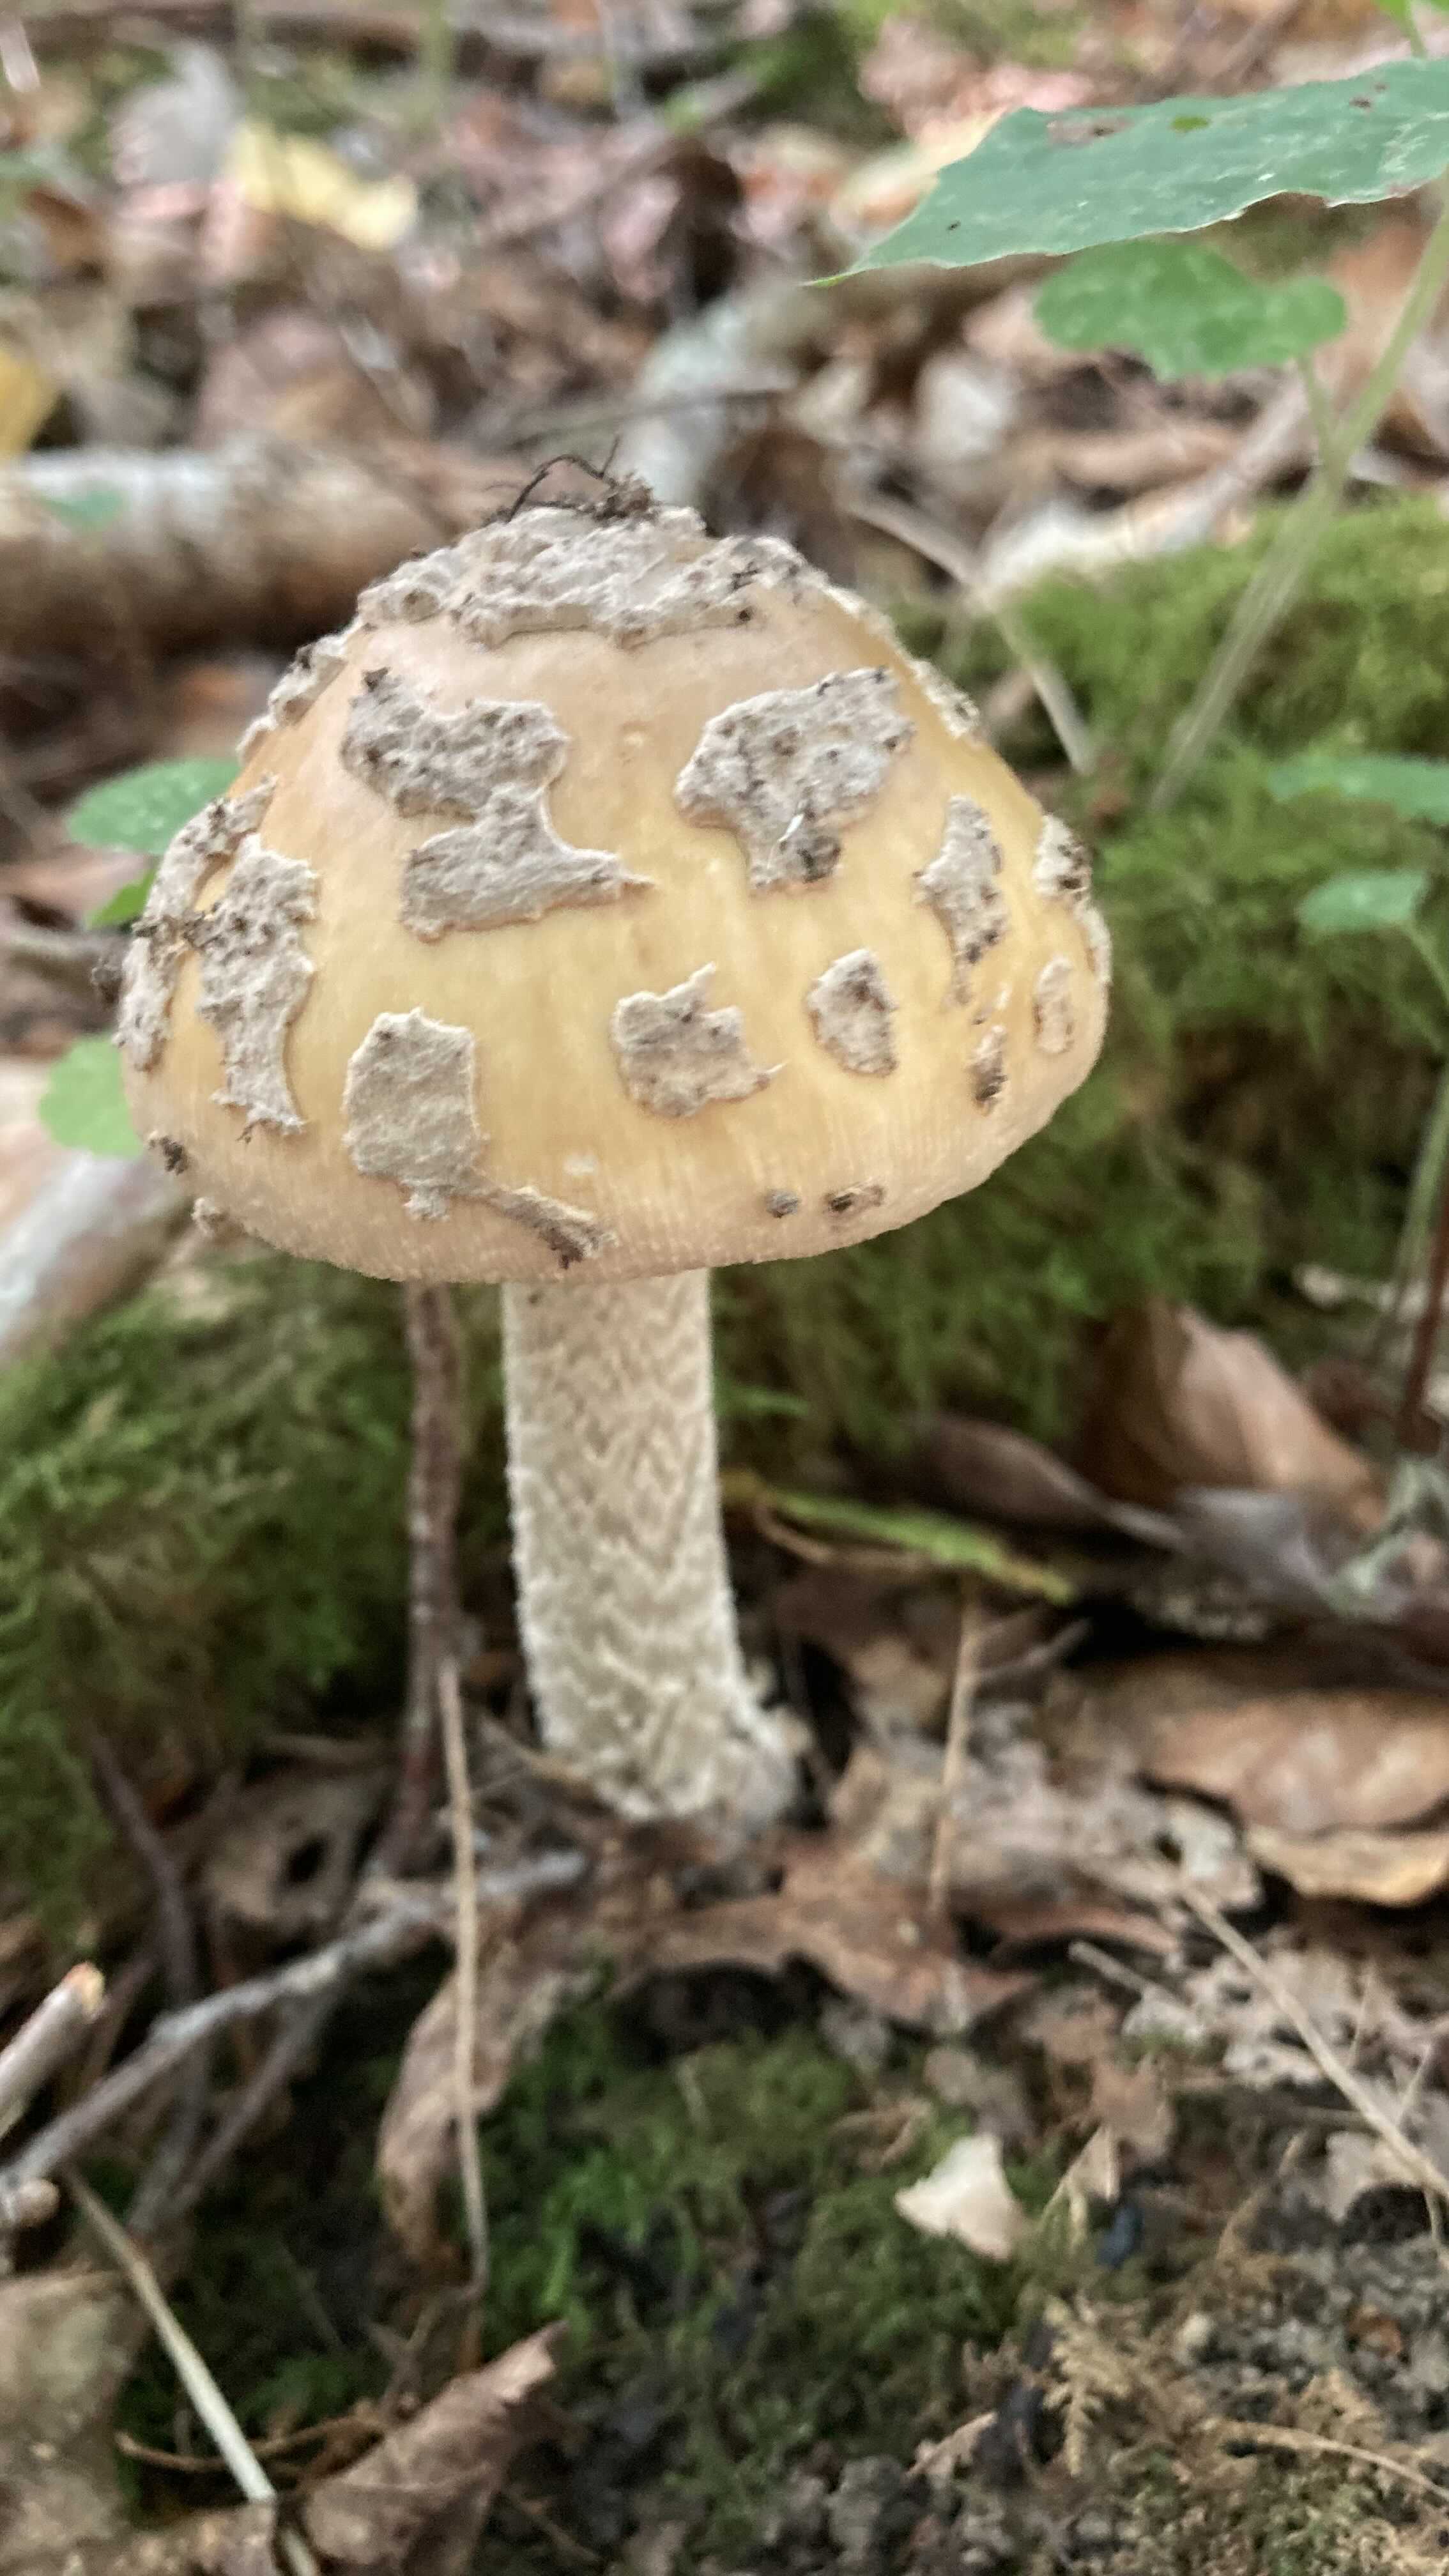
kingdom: Fungi
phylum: Basidiomycota
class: Agaricomycetes
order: Agaricales
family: Amanitaceae
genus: Amanita
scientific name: Amanita ceciliae
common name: stor kam-fluesvamp
